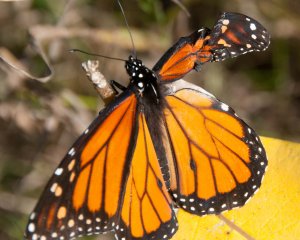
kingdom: Animalia
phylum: Arthropoda
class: Insecta
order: Lepidoptera
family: Nymphalidae
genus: Danaus
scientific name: Danaus plexippus
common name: Monarch
